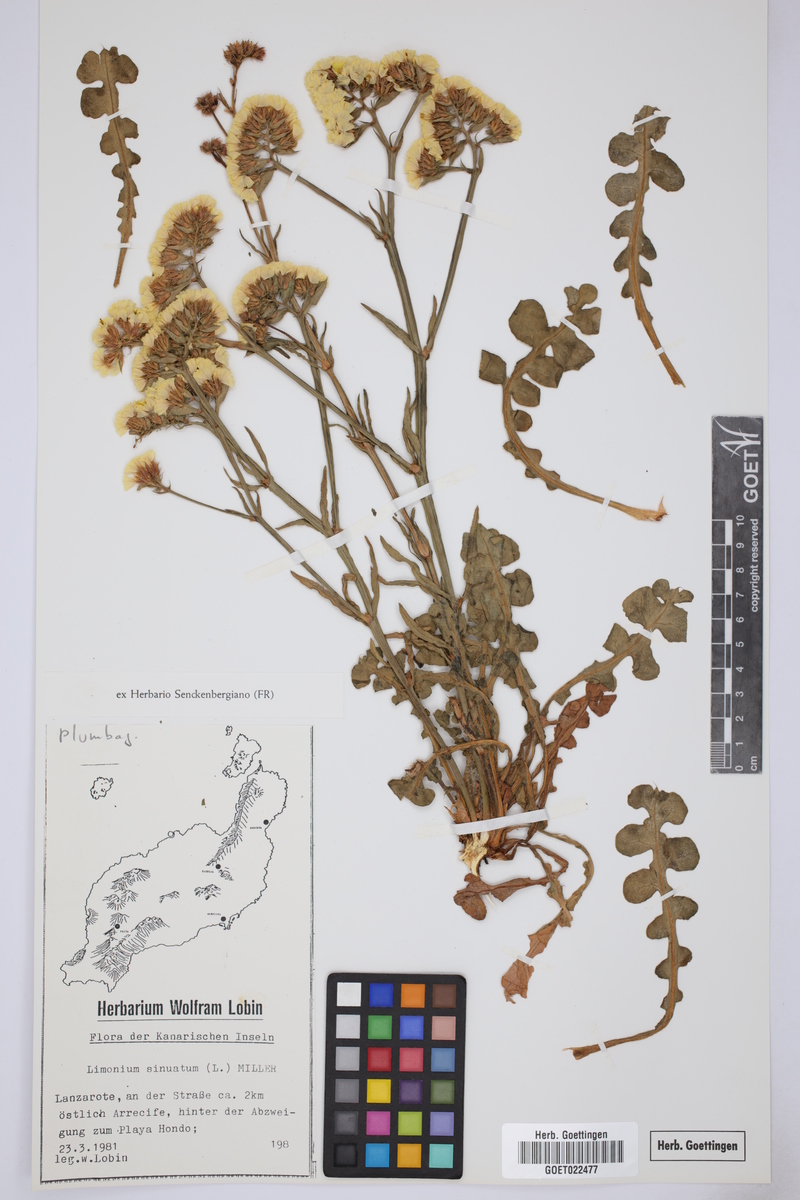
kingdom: Plantae
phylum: Tracheophyta
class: Magnoliopsida
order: Caryophyllales
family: Plumbaginaceae
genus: Limonium
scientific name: Limonium sinuatum
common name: Statice
